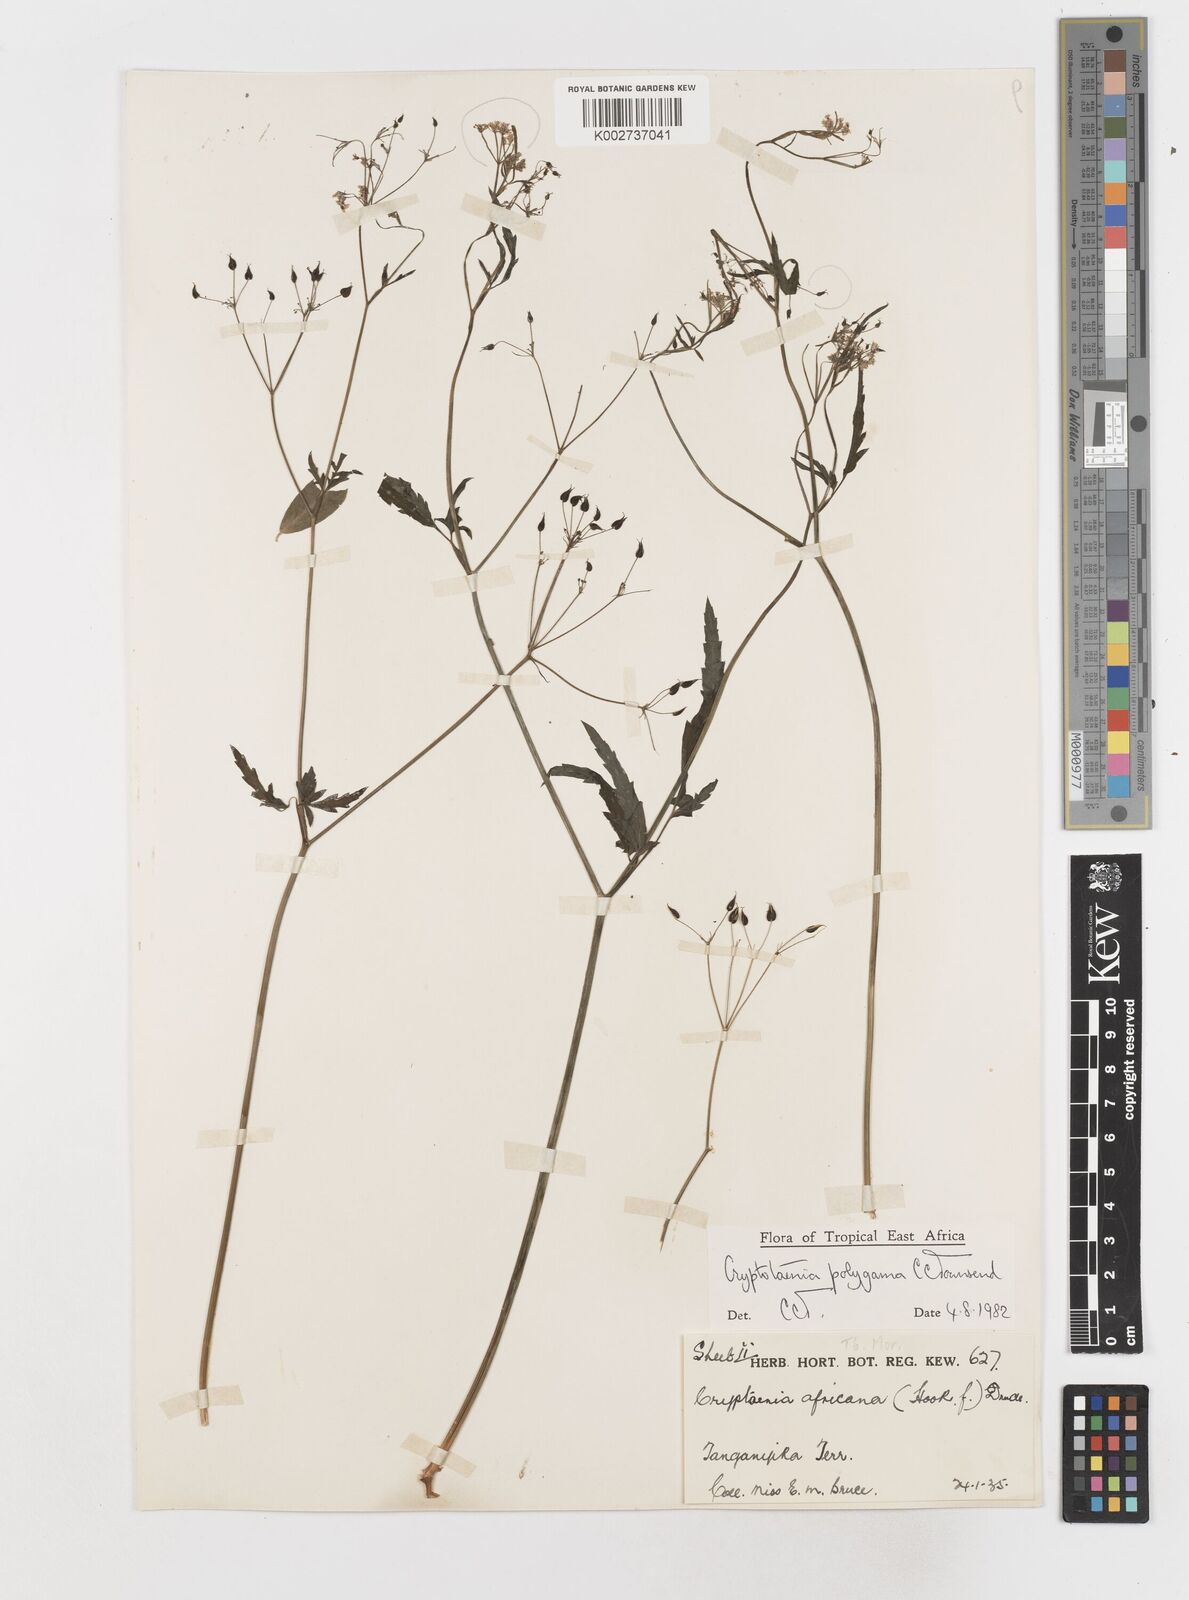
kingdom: Plantae
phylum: Tracheophyta
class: Magnoliopsida
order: Apiales
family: Apiaceae
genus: Cryptotaenia
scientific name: Cryptotaenia polygama
